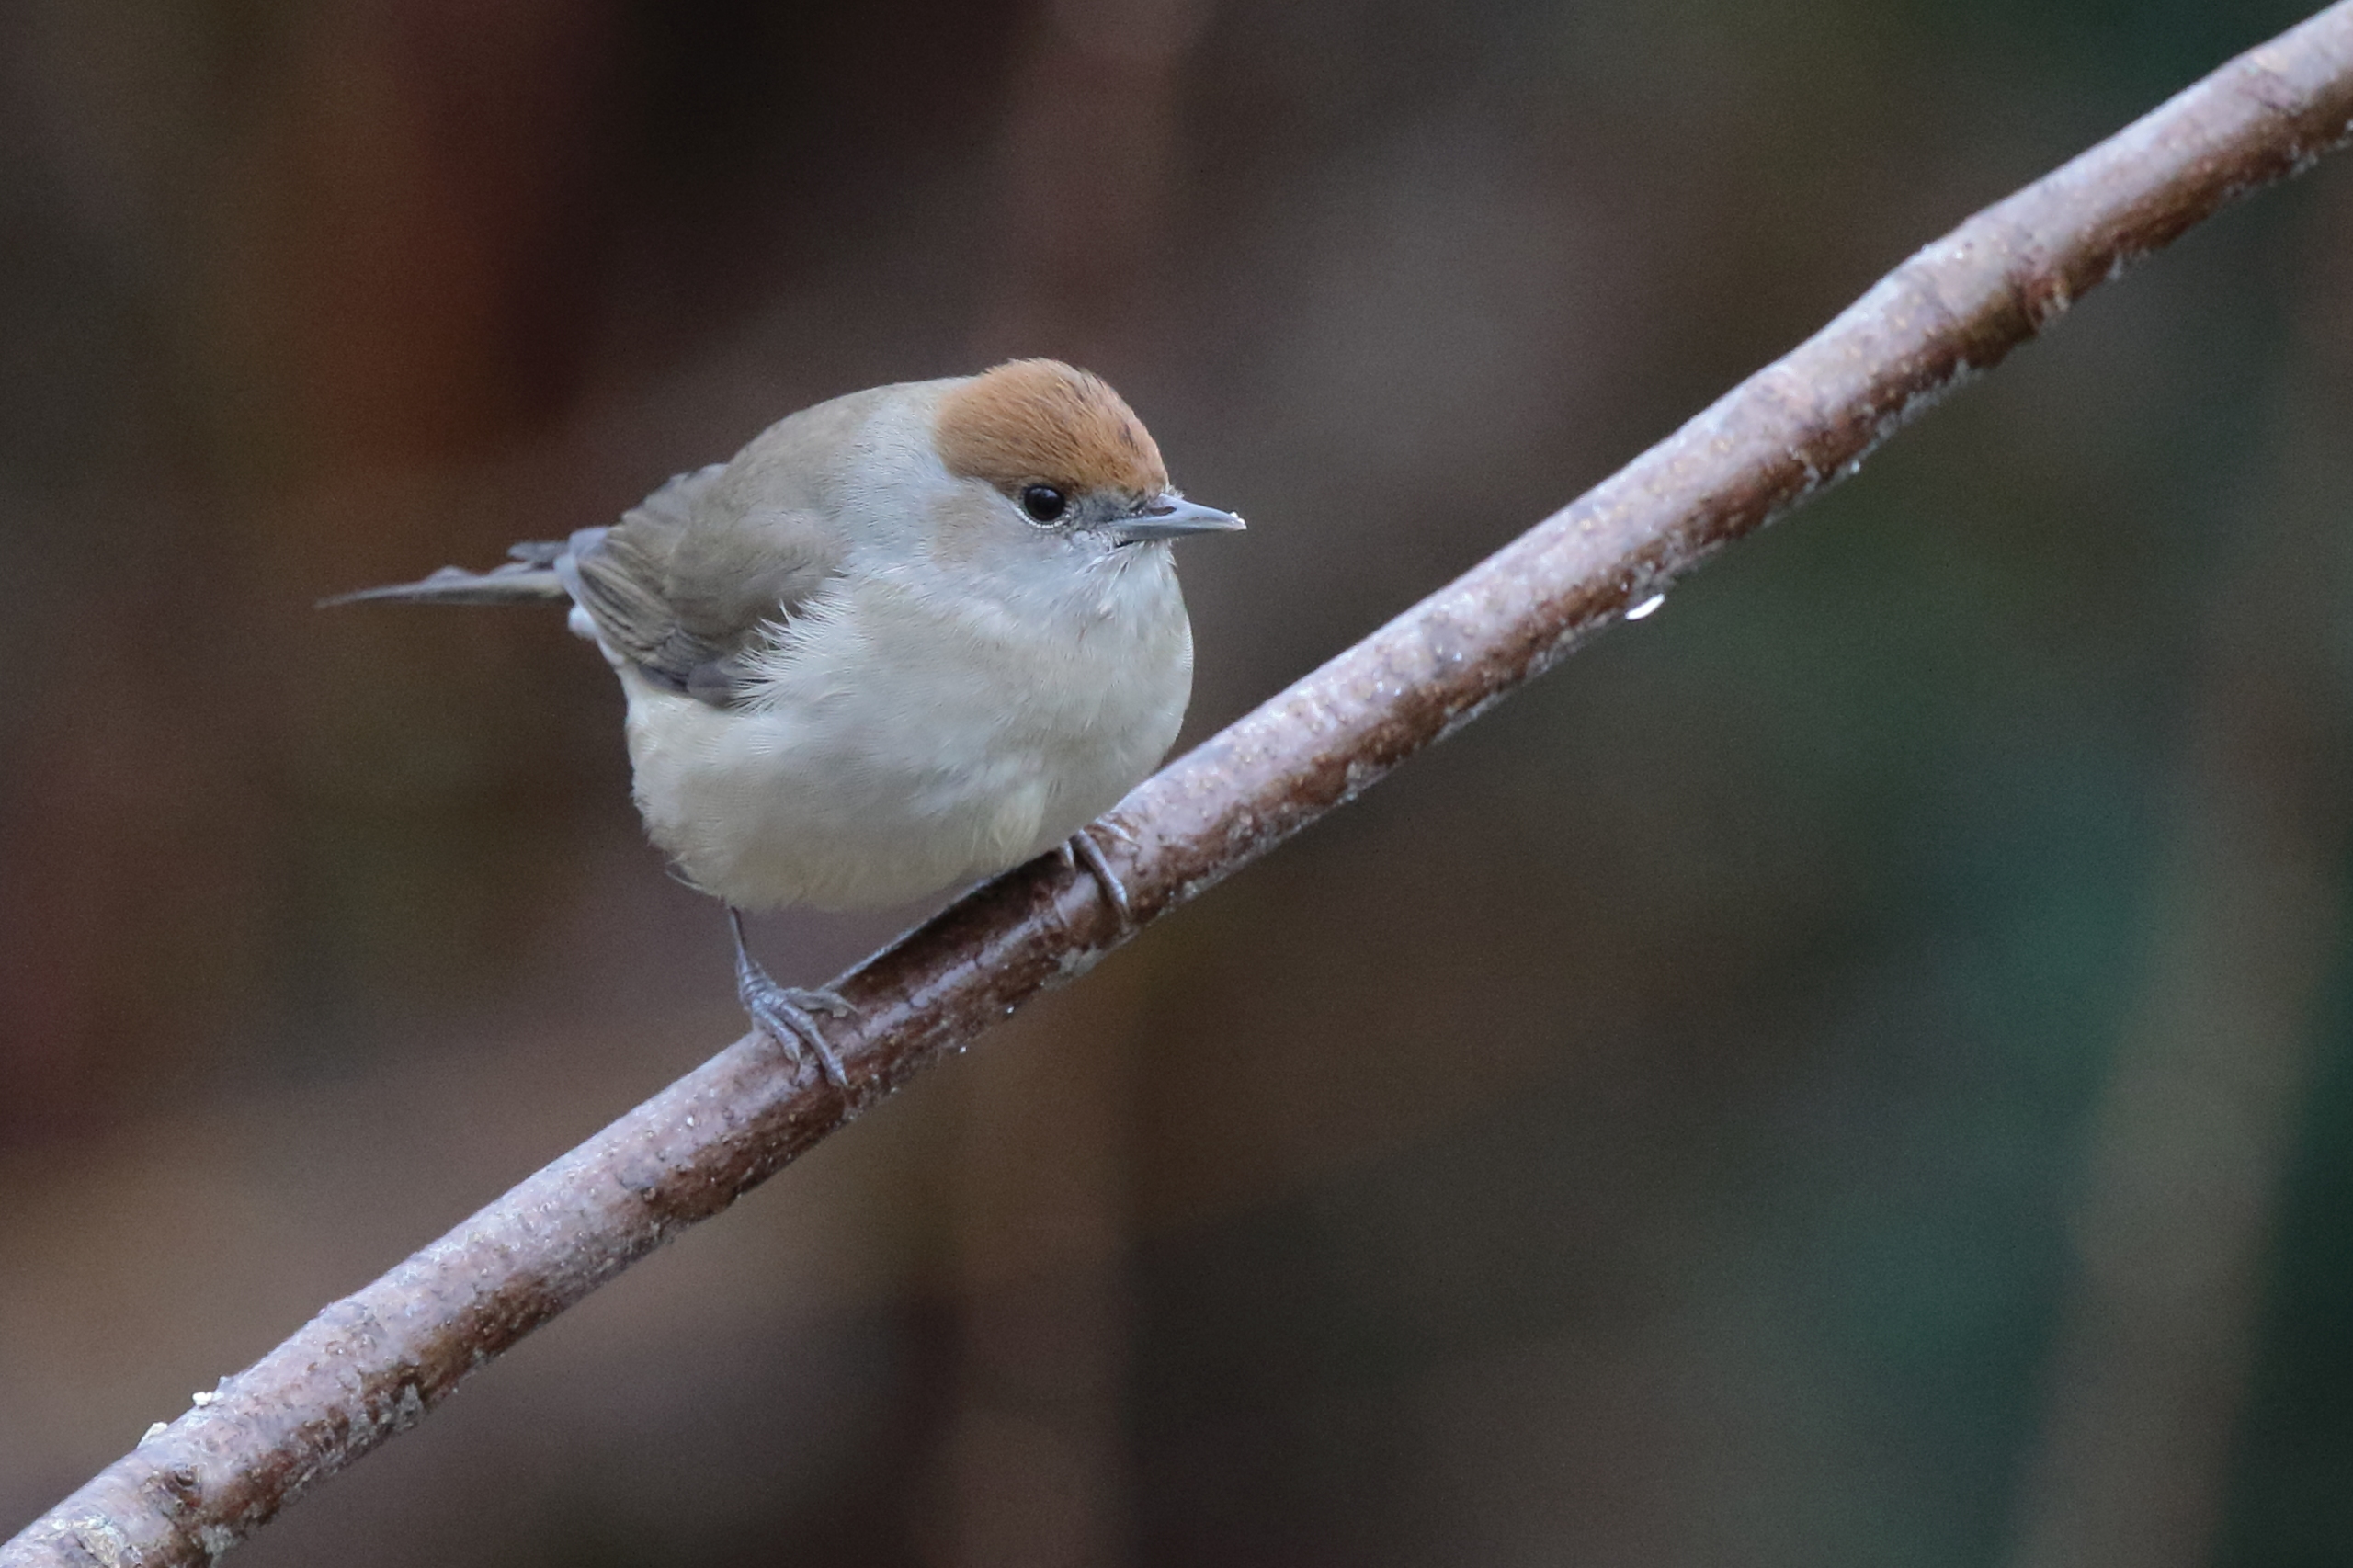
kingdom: Animalia
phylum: Chordata
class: Aves
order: Passeriformes
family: Sylviidae
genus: Sylvia
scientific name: Sylvia atricapilla
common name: Munk
